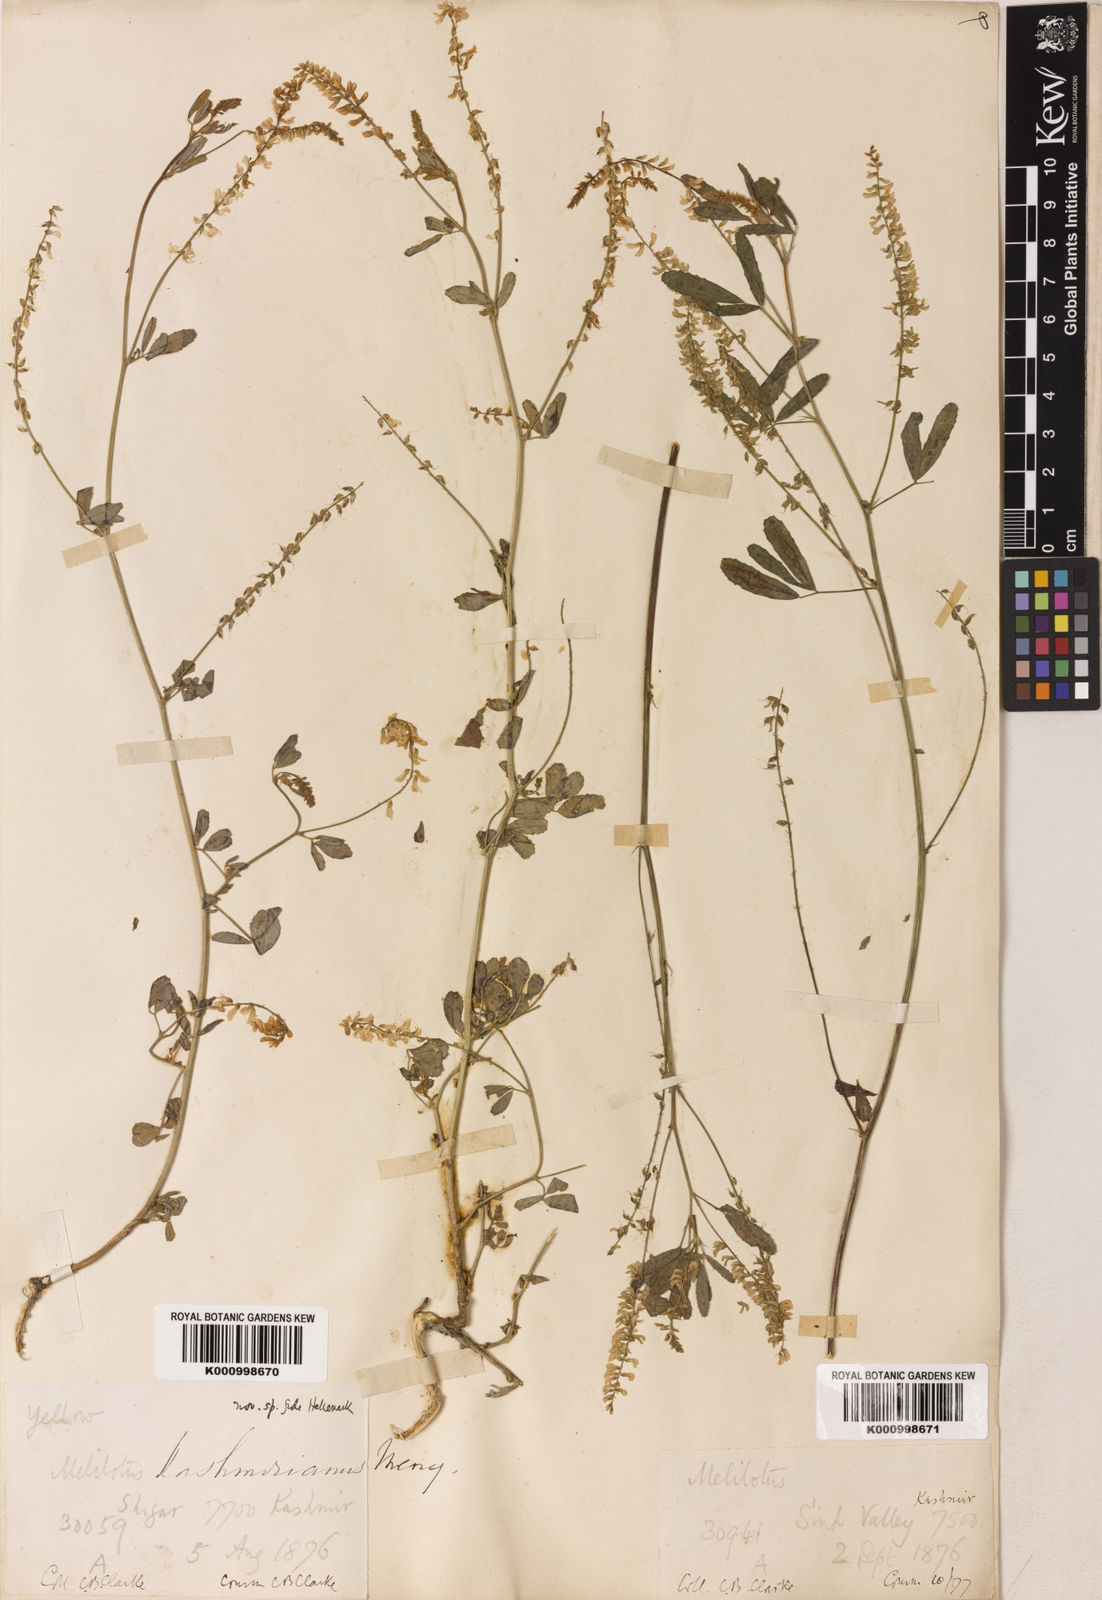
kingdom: Plantae
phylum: Tracheophyta
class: Magnoliopsida
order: Fabales
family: Fabaceae
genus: Melilotus
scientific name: Melilotus
